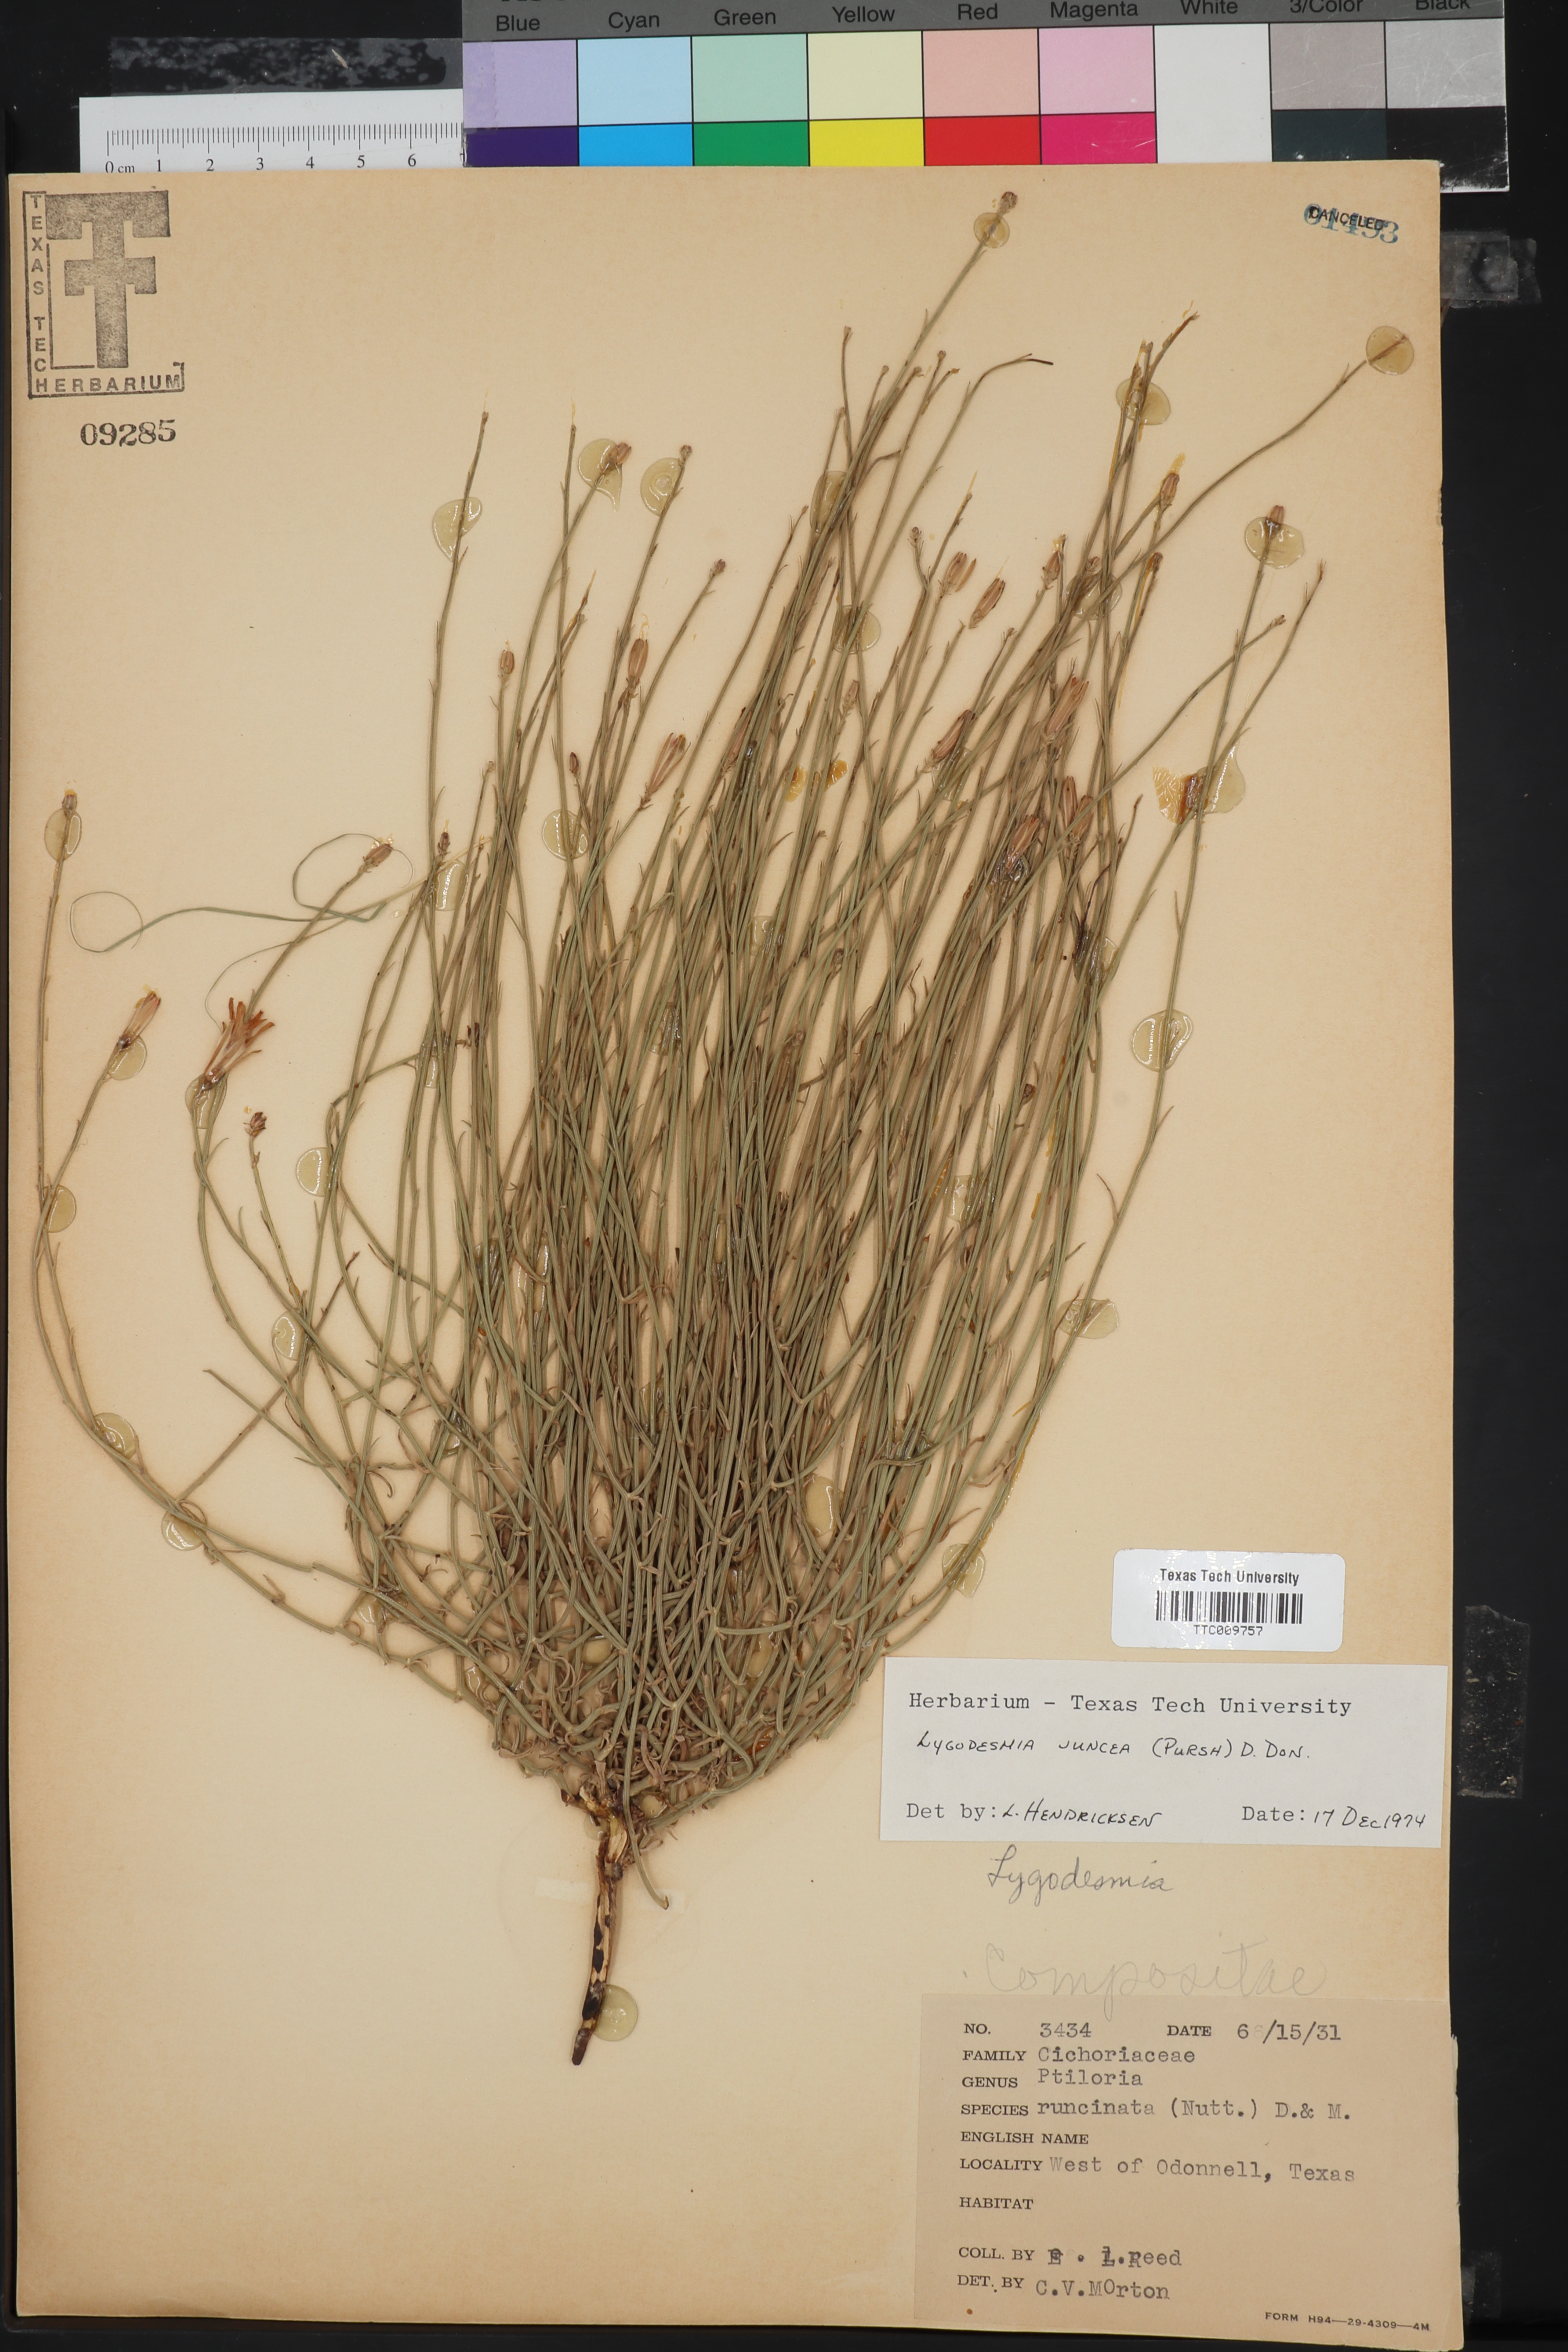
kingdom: Plantae
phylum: Tracheophyta
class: Magnoliopsida
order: Asterales
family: Asteraceae
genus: Lygodesmia
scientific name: Lygodesmia juncea
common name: Common skeletonweed
